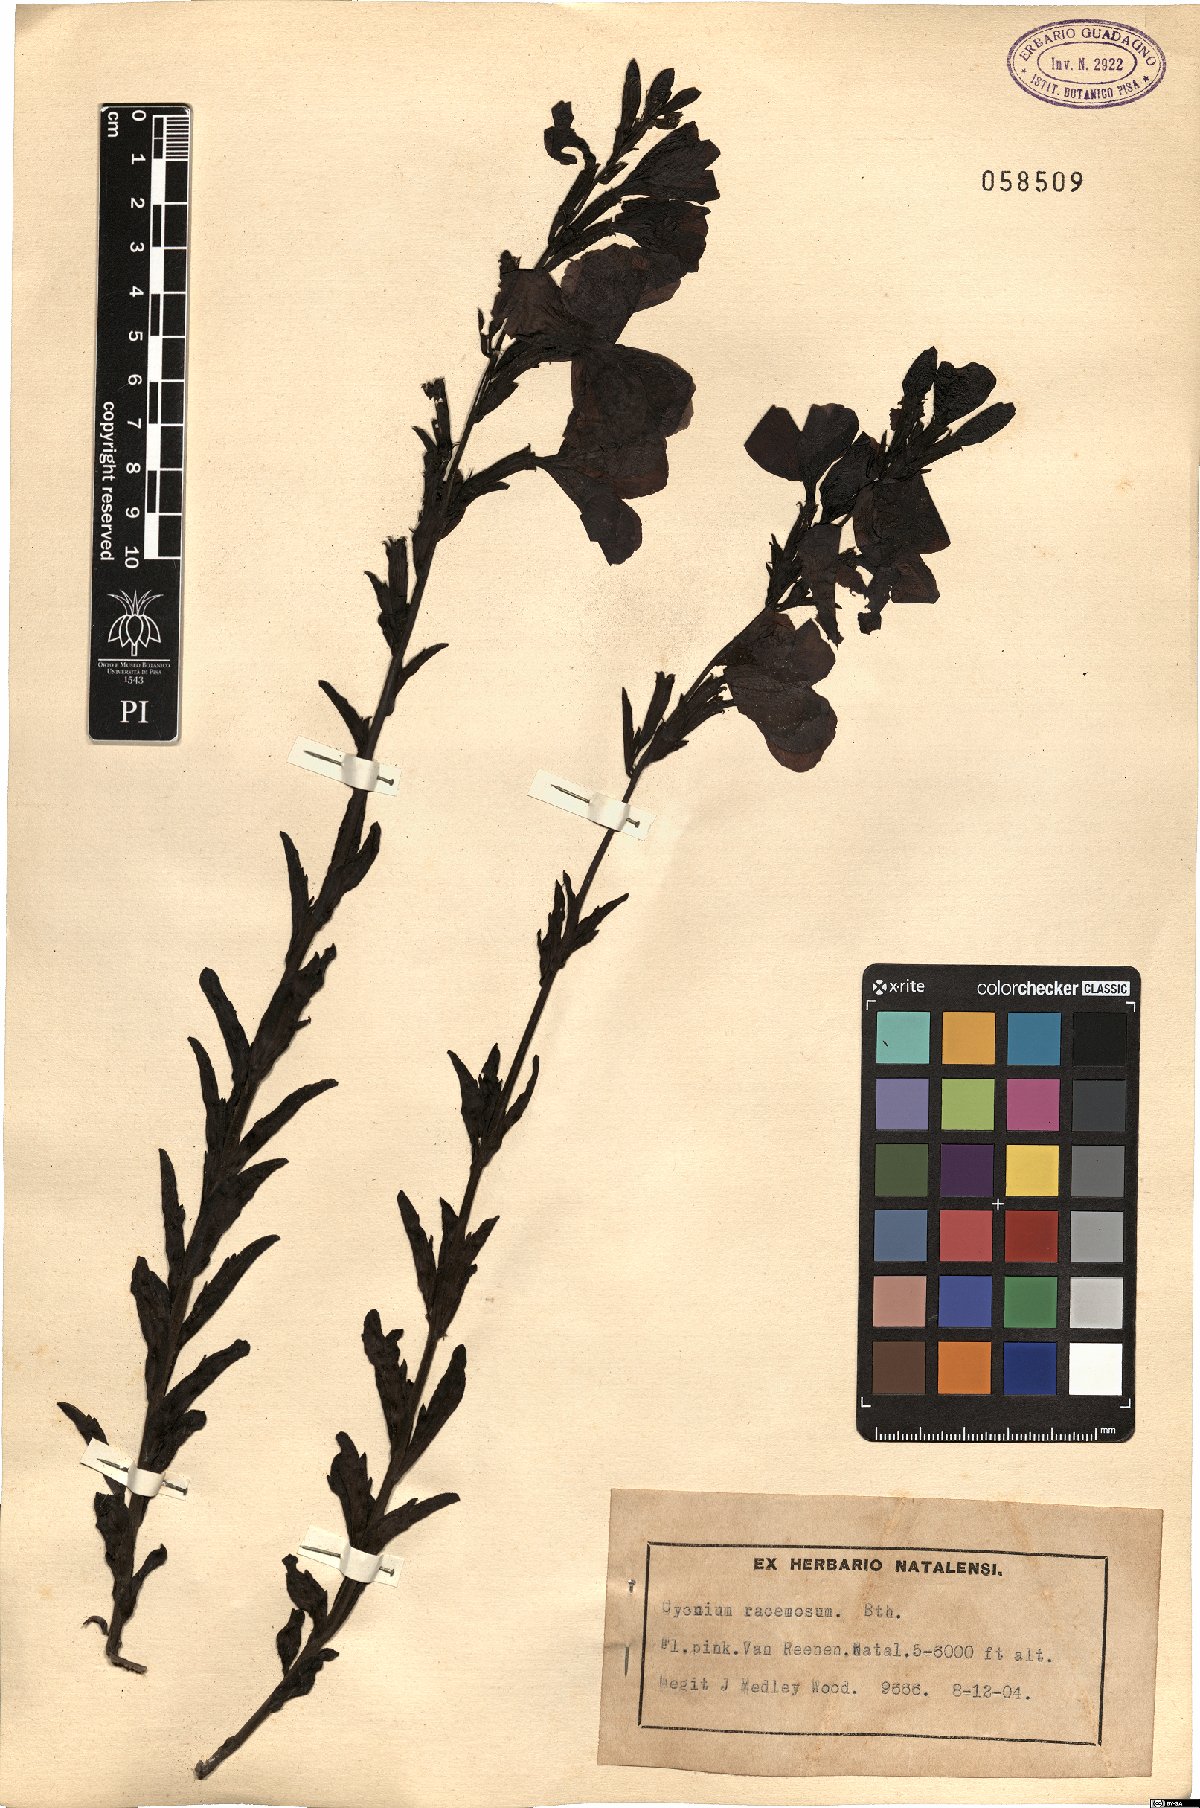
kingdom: Plantae
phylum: Tracheophyta
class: Magnoliopsida
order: Lamiales
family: Orobanchaceae
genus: Cycnium
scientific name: Cycnium racemosum
